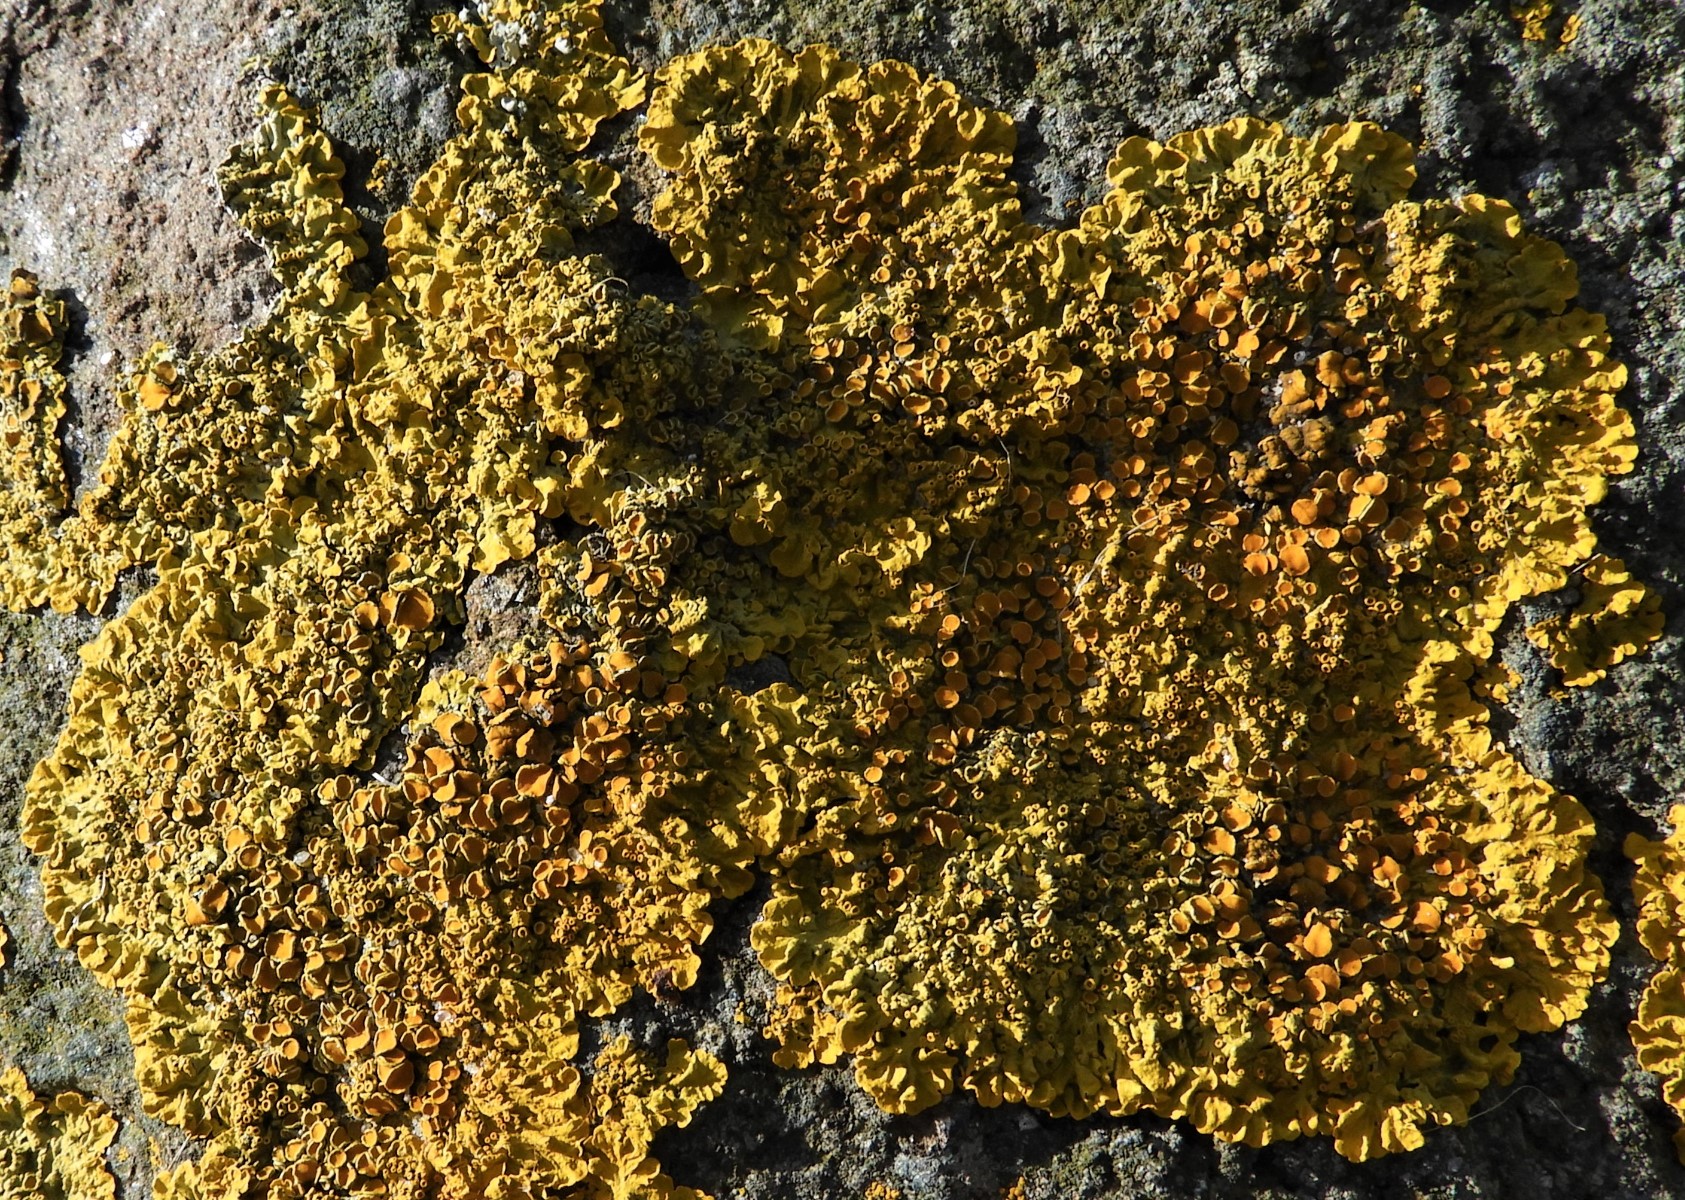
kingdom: Fungi
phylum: Ascomycota
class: Lecanoromycetes
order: Teloschistales
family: Teloschistaceae
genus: Xanthoria
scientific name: Xanthoria parietina
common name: almindelig væggelav
